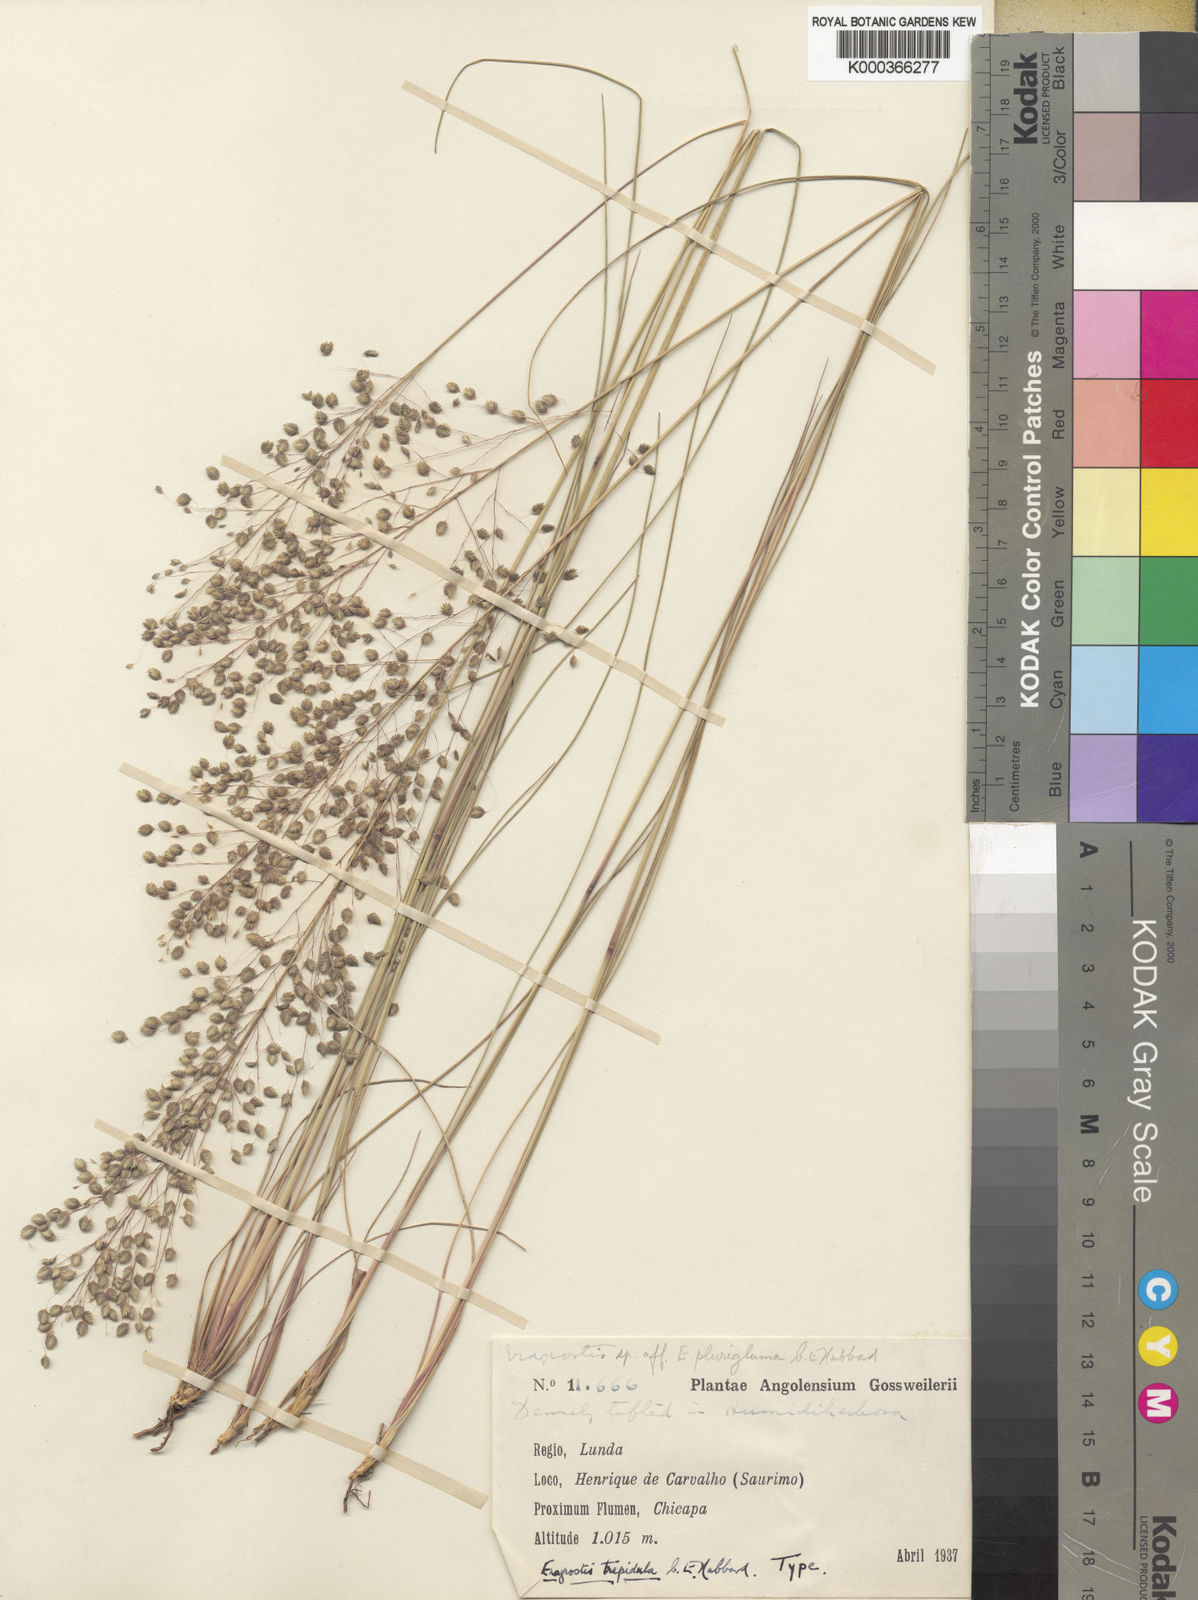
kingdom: Plantae
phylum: Tracheophyta
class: Liliopsida
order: Poales
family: Poaceae
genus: Eragrostis
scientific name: Eragrostis plurigluma
